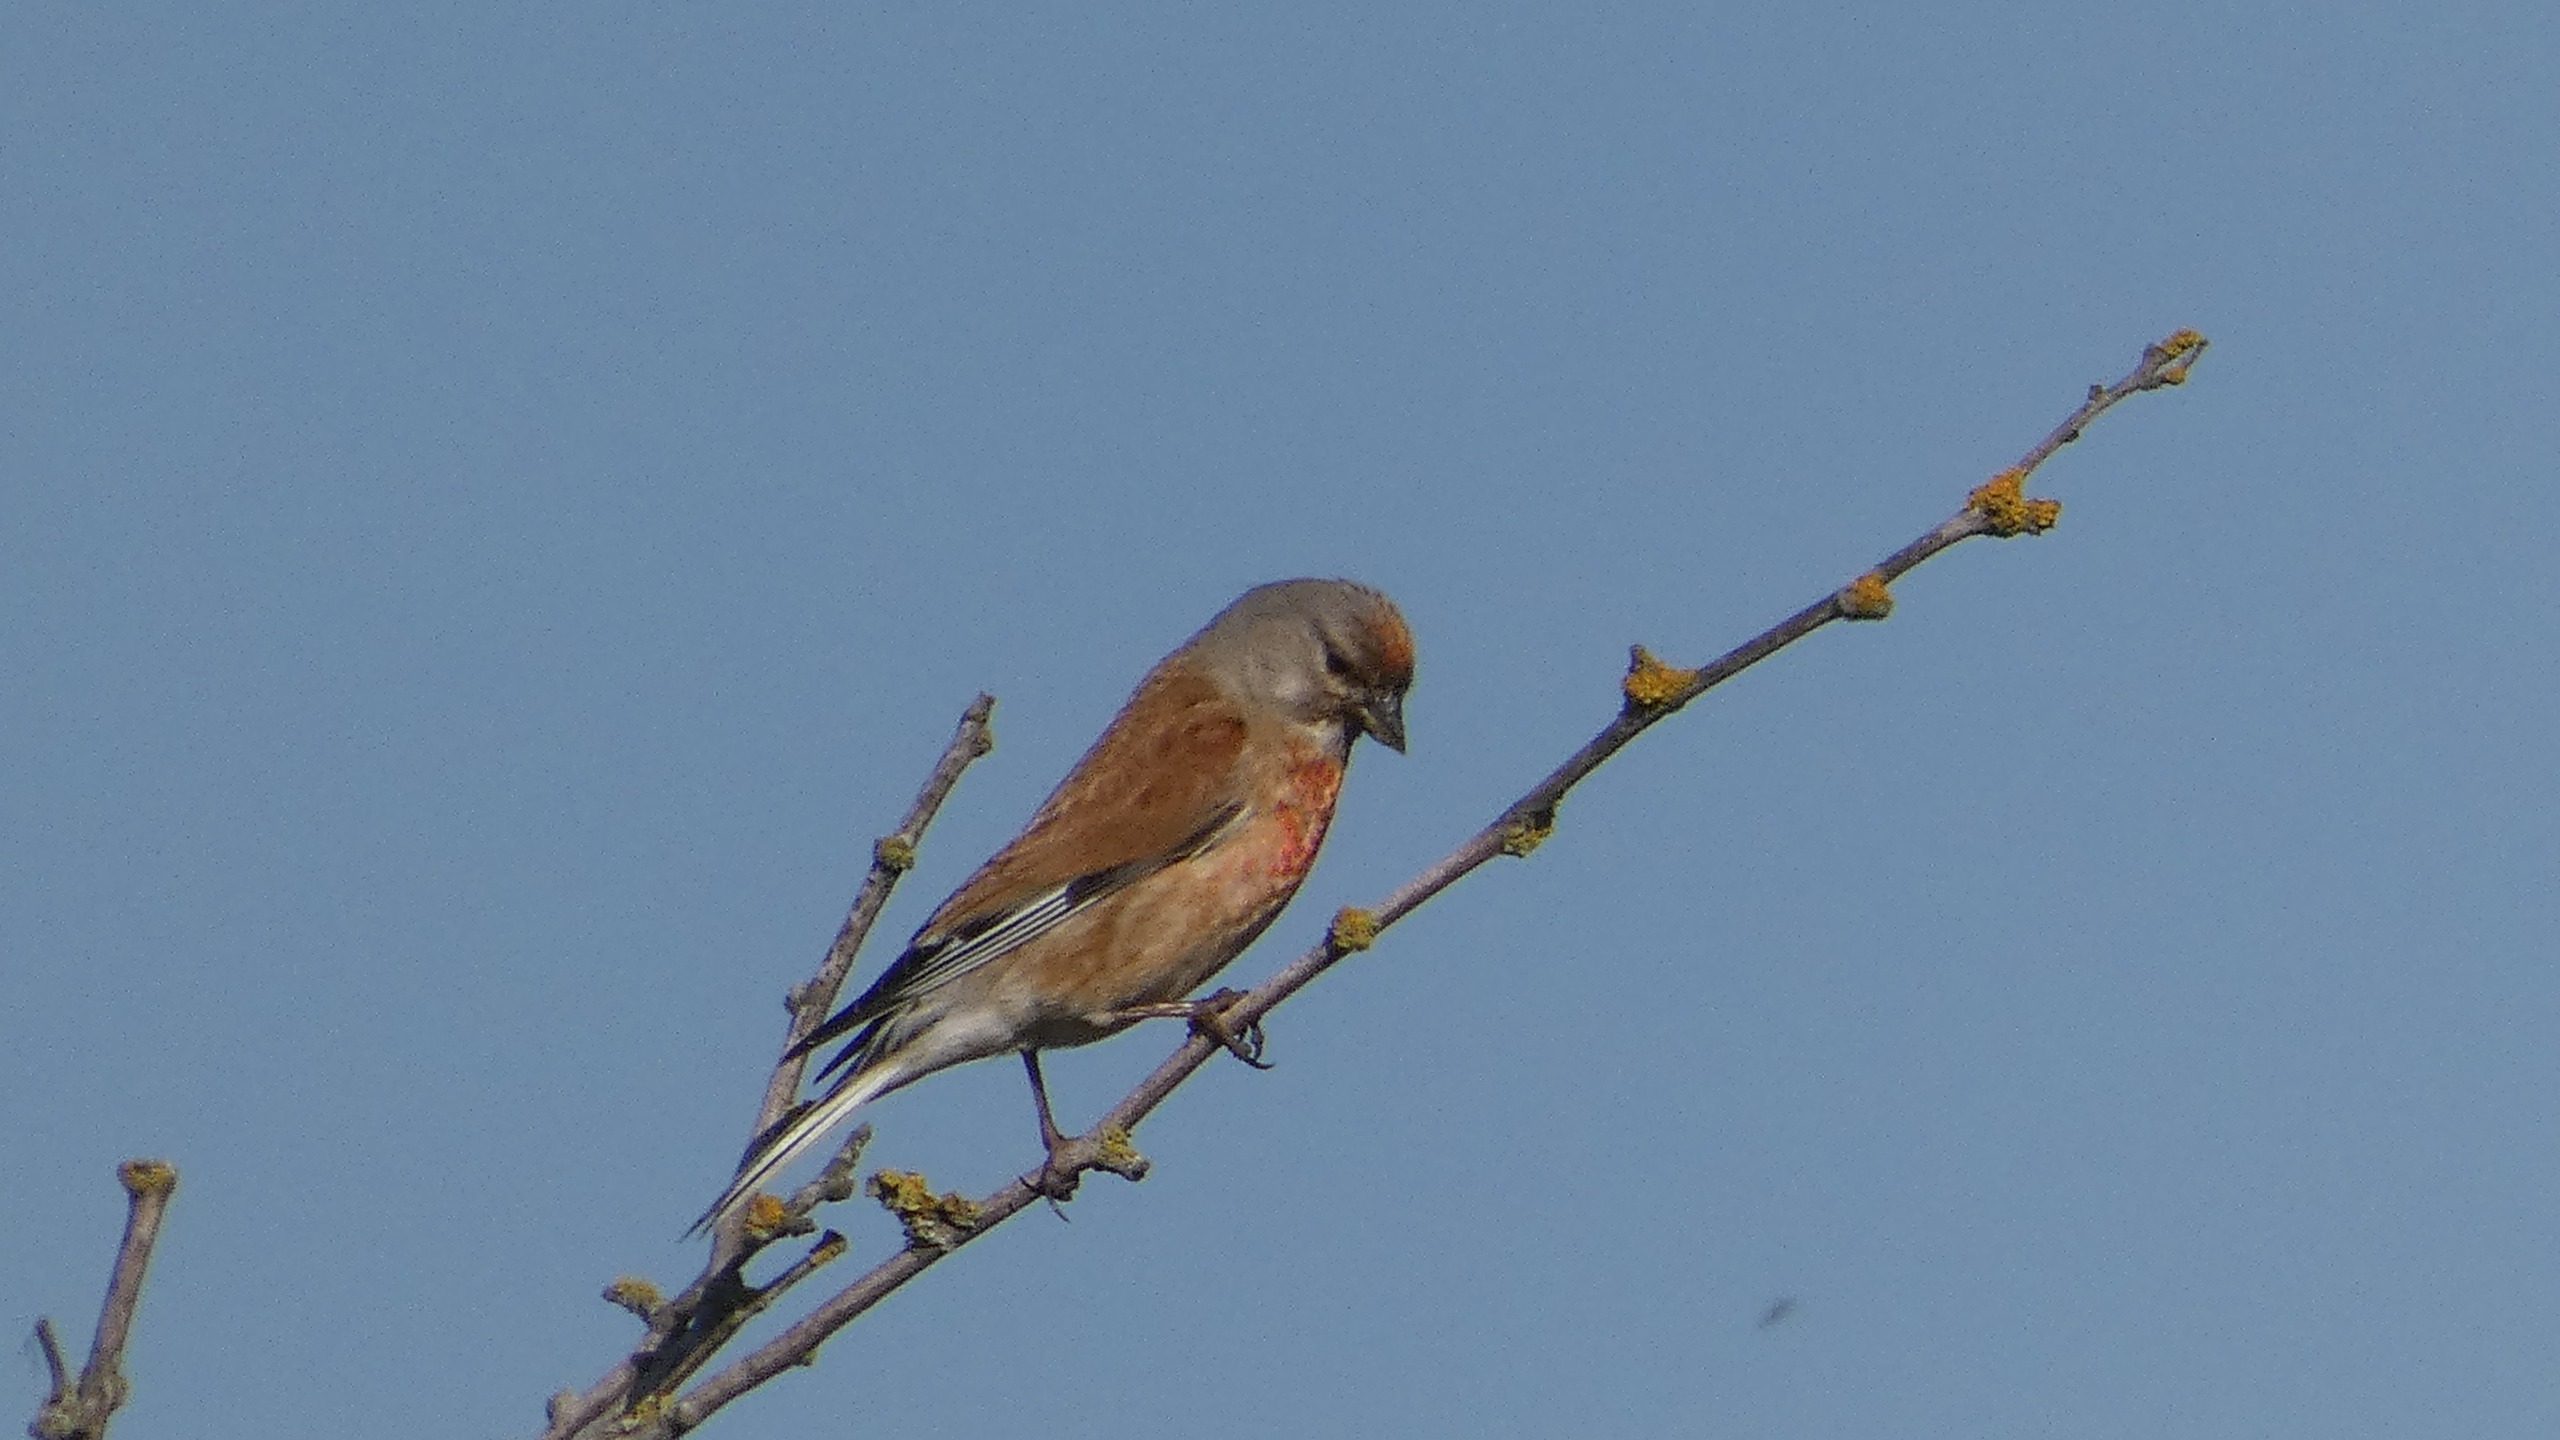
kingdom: Animalia
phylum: Chordata
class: Aves
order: Passeriformes
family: Fringillidae
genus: Linaria
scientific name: Linaria cannabina
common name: Tornirisk
